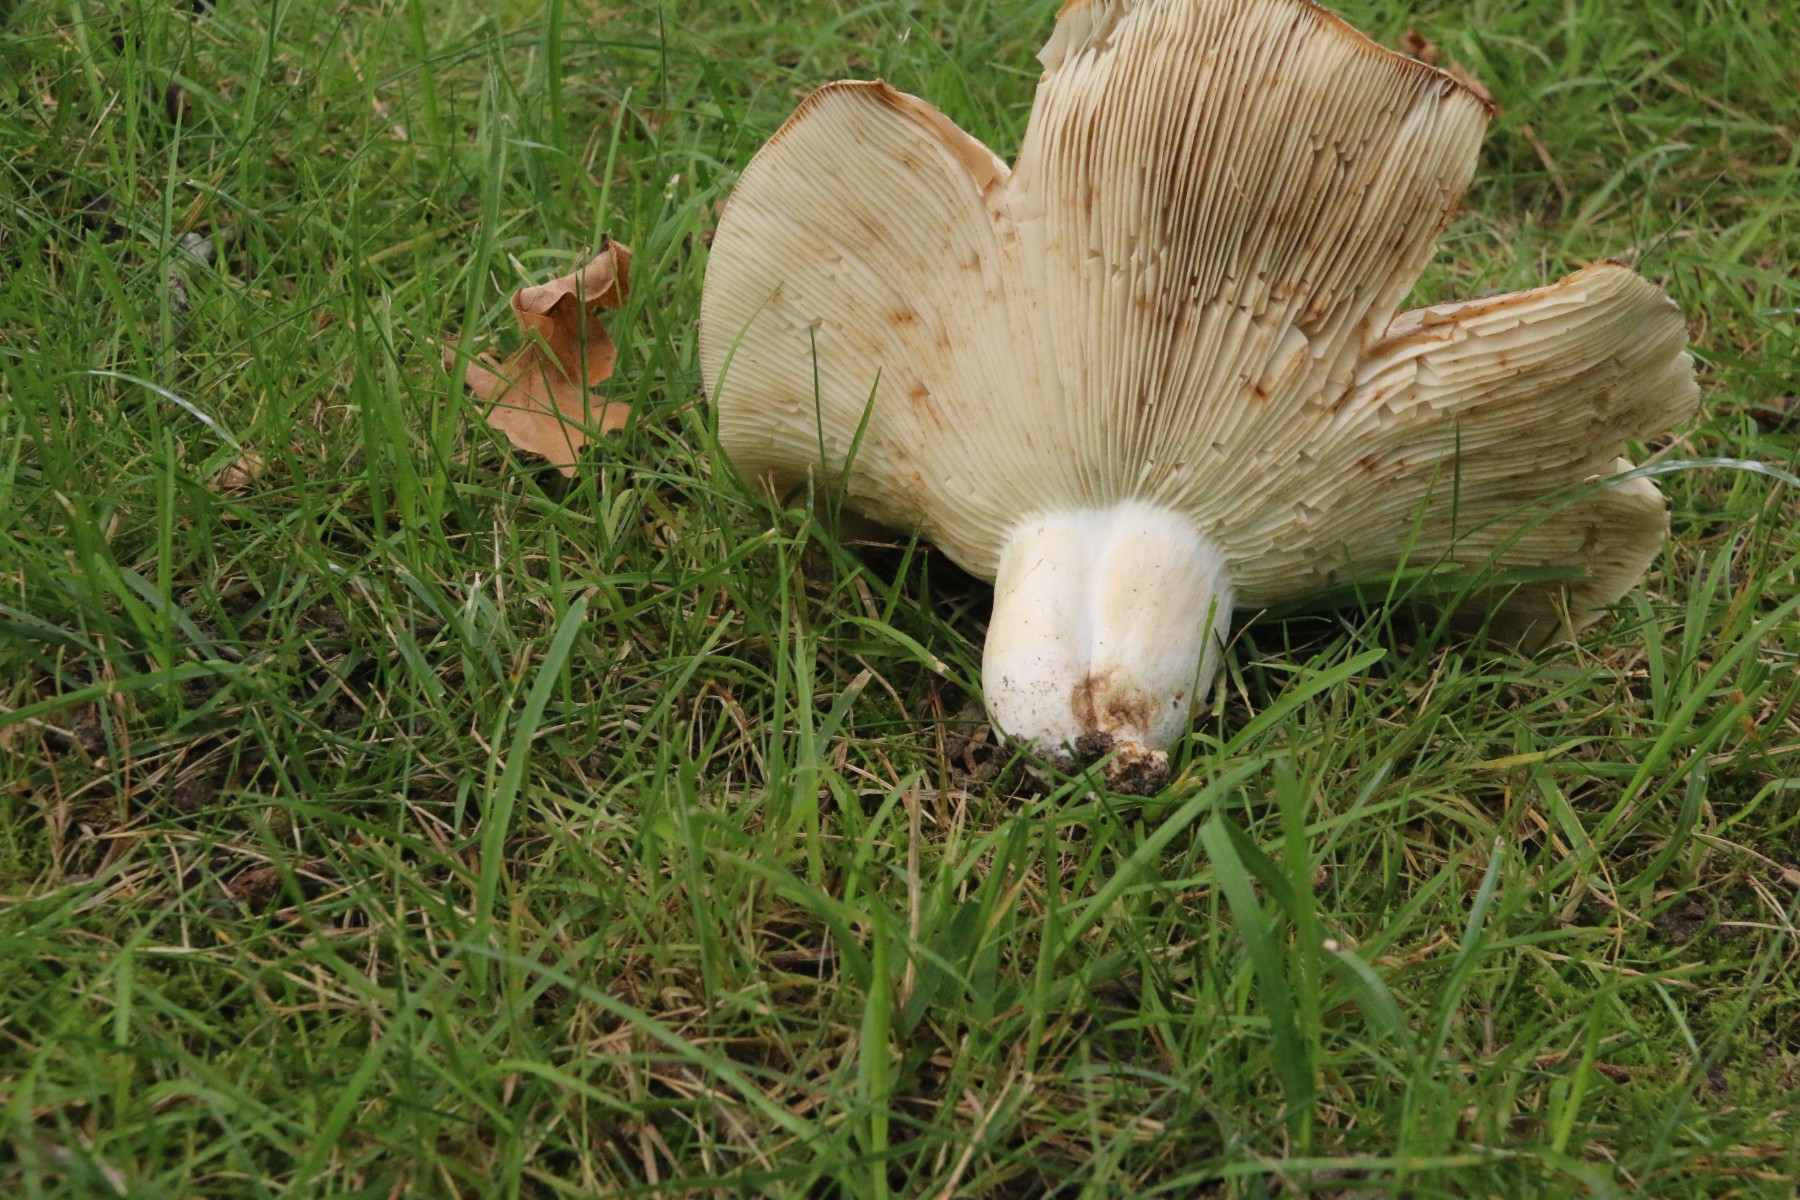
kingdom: Fungi
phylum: Basidiomycota
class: Agaricomycetes
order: Russulales
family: Russulaceae
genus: Russula
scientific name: Russula chloroides
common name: grønhalset tragt-skørhat
